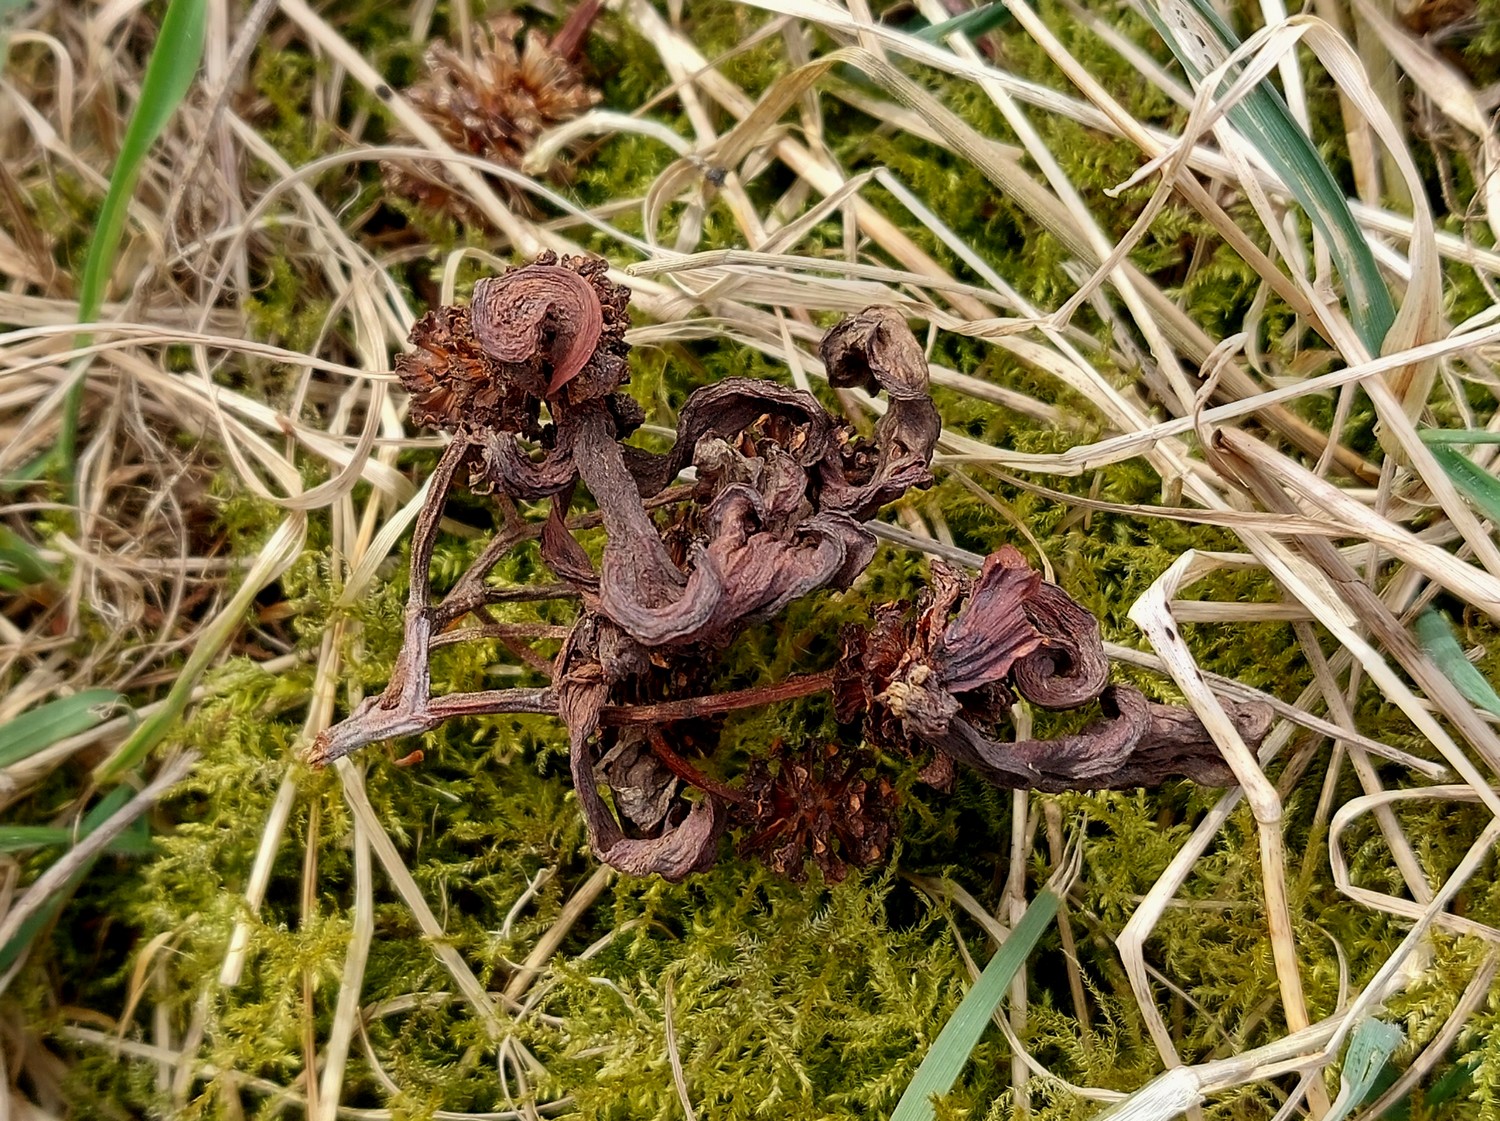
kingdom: Fungi
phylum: Ascomycota
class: Taphrinomycetes
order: Taphrinales
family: Taphrinaceae
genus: Taphrina
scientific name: Taphrina alni
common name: Alder tongue
